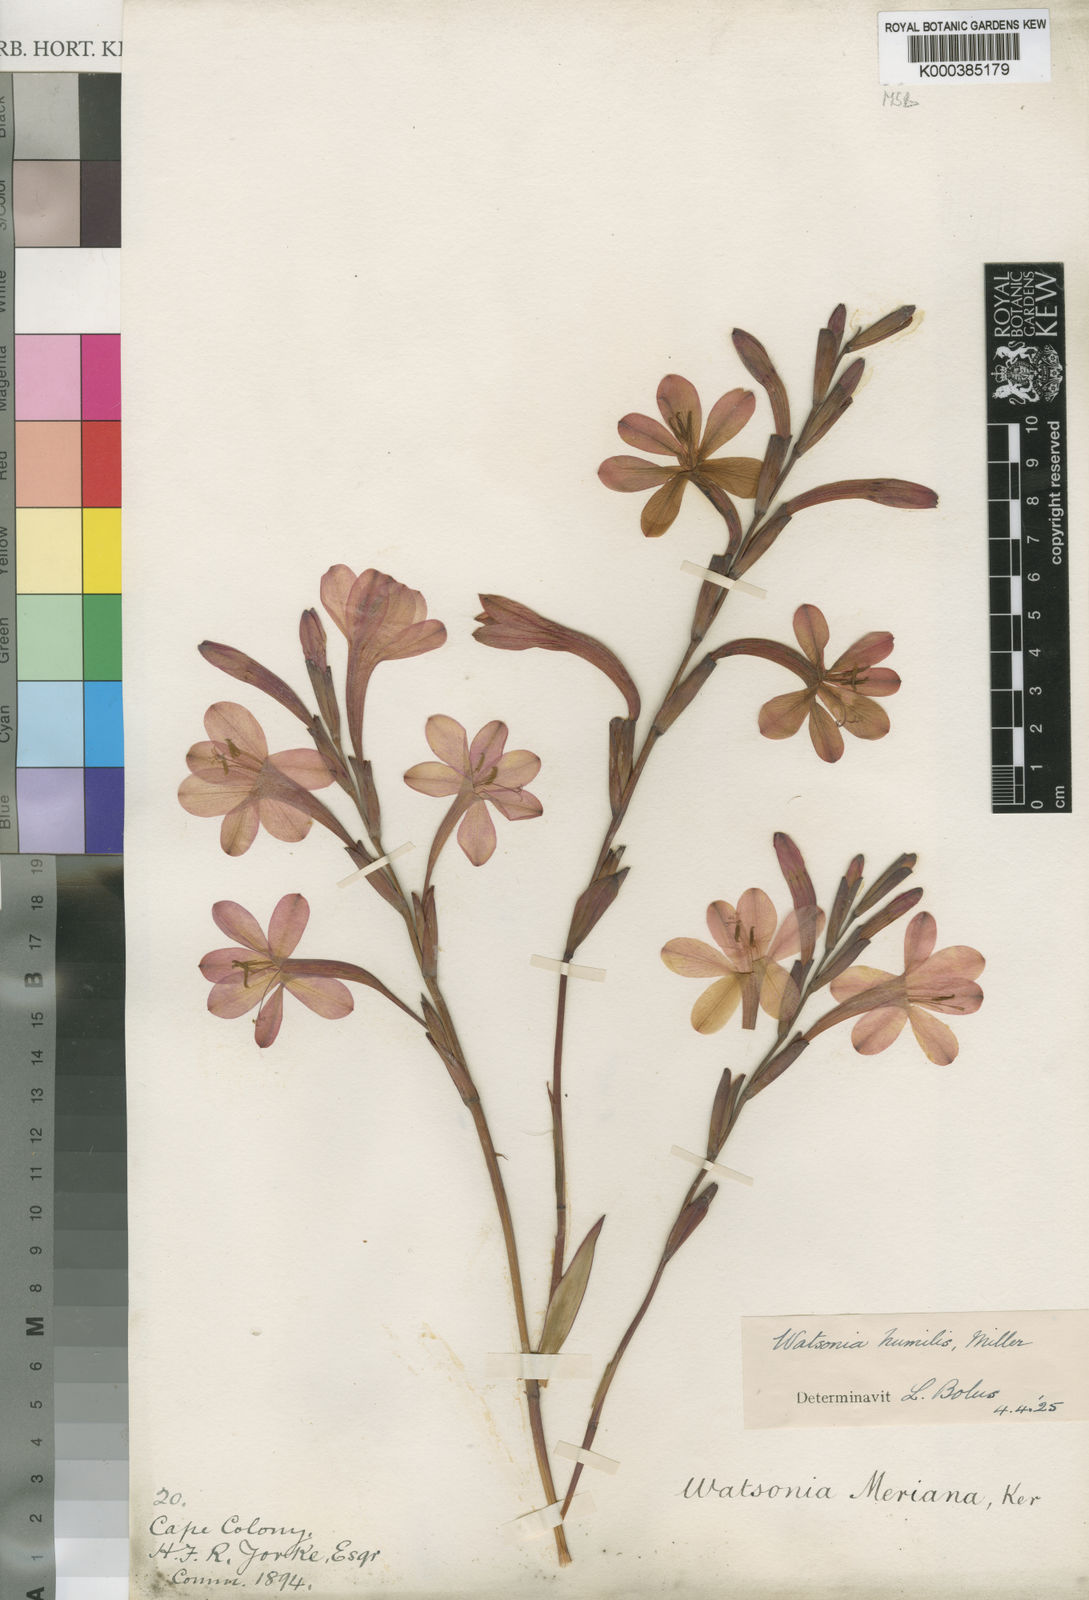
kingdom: Plantae
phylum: Tracheophyta
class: Liliopsida
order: Asparagales
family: Iridaceae
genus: Watsonia
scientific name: Watsonia humilis
